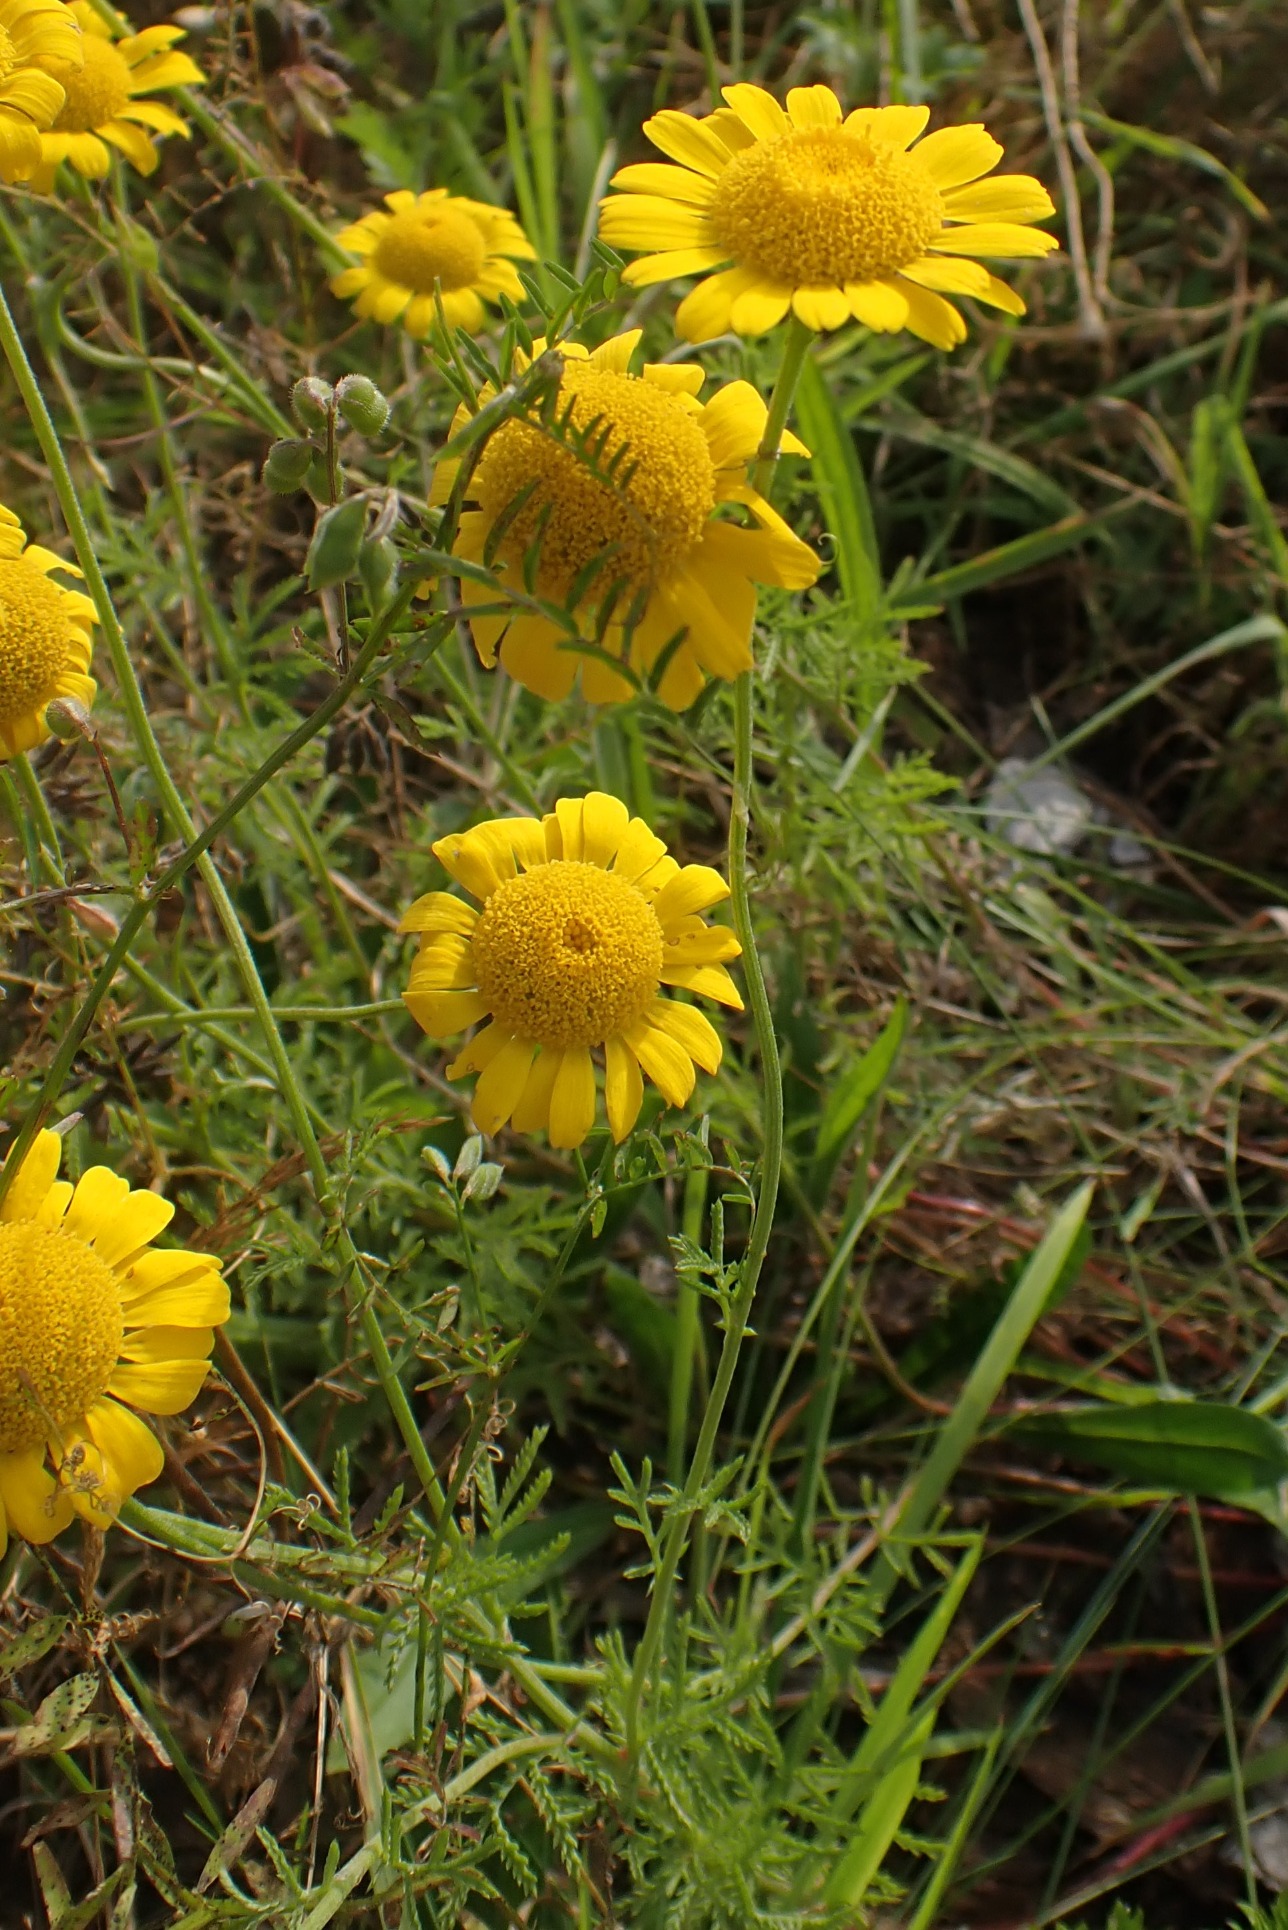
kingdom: Plantae
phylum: Tracheophyta
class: Magnoliopsida
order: Asterales
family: Asteraceae
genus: Cota
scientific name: Cota tinctoria
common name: Farve-gåseurt
